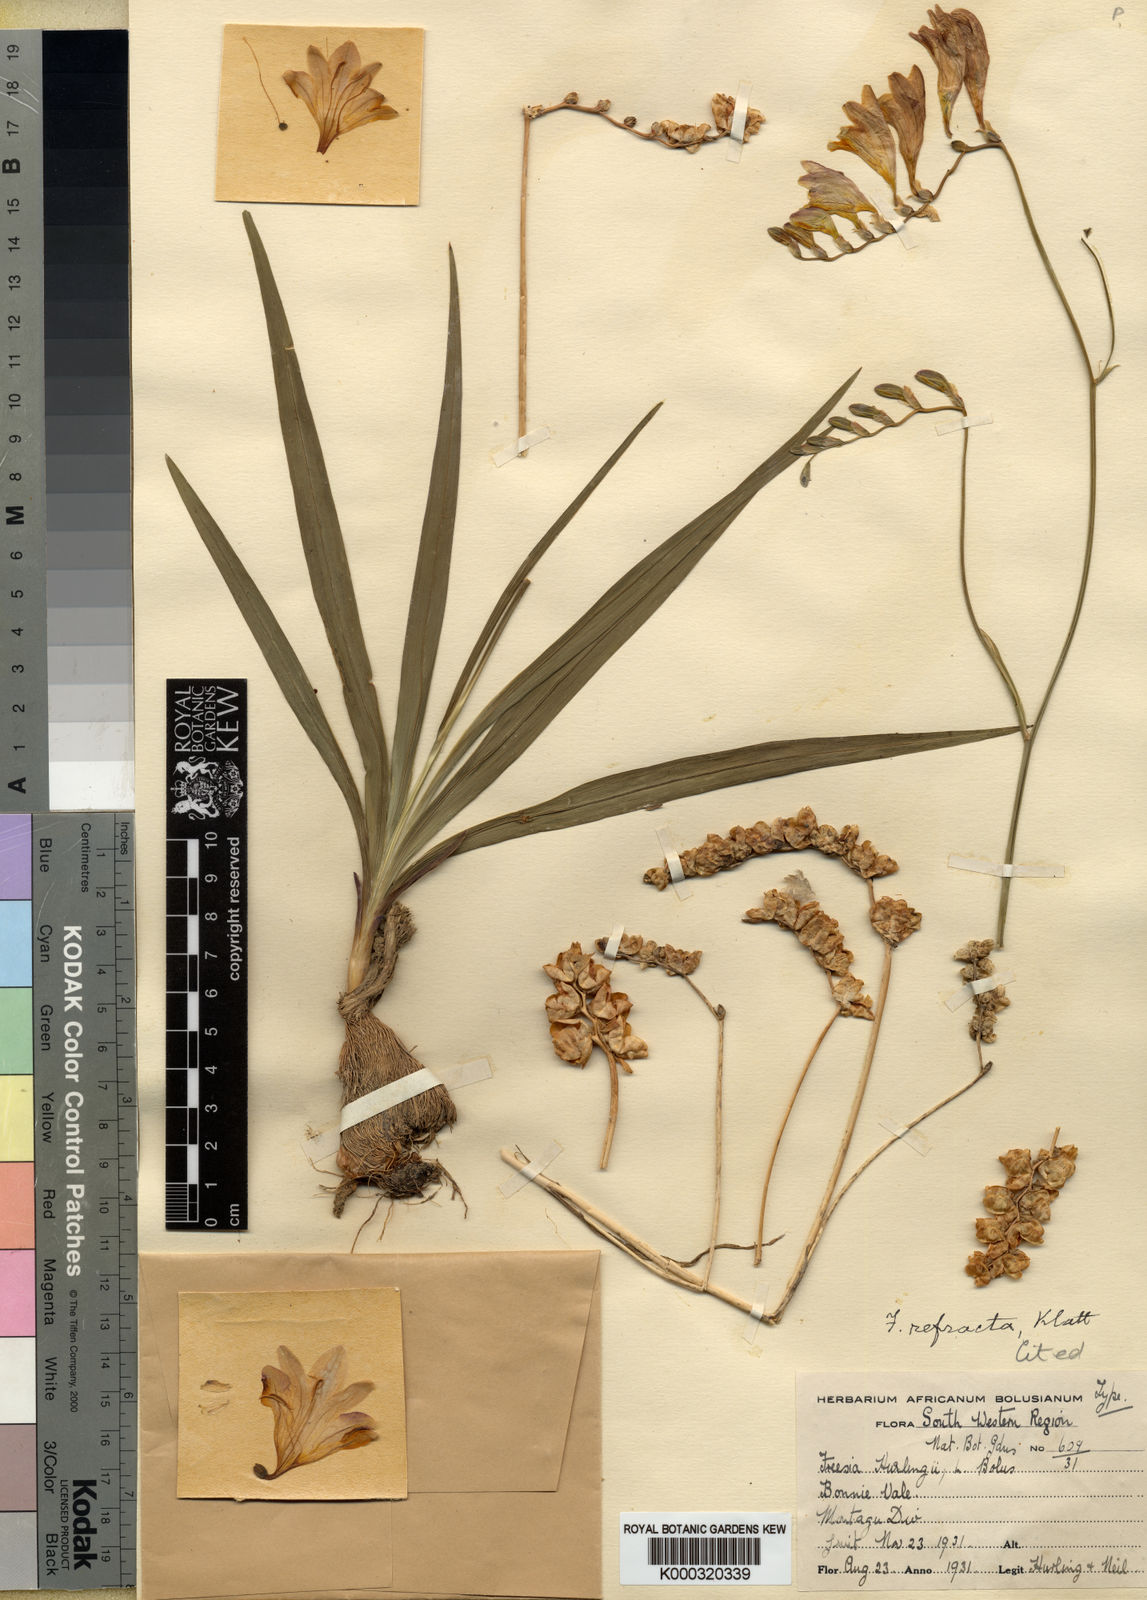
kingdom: Plantae
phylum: Tracheophyta
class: Liliopsida
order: Asparagales
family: Iridaceae
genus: Freesia
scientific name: Freesia refracta
